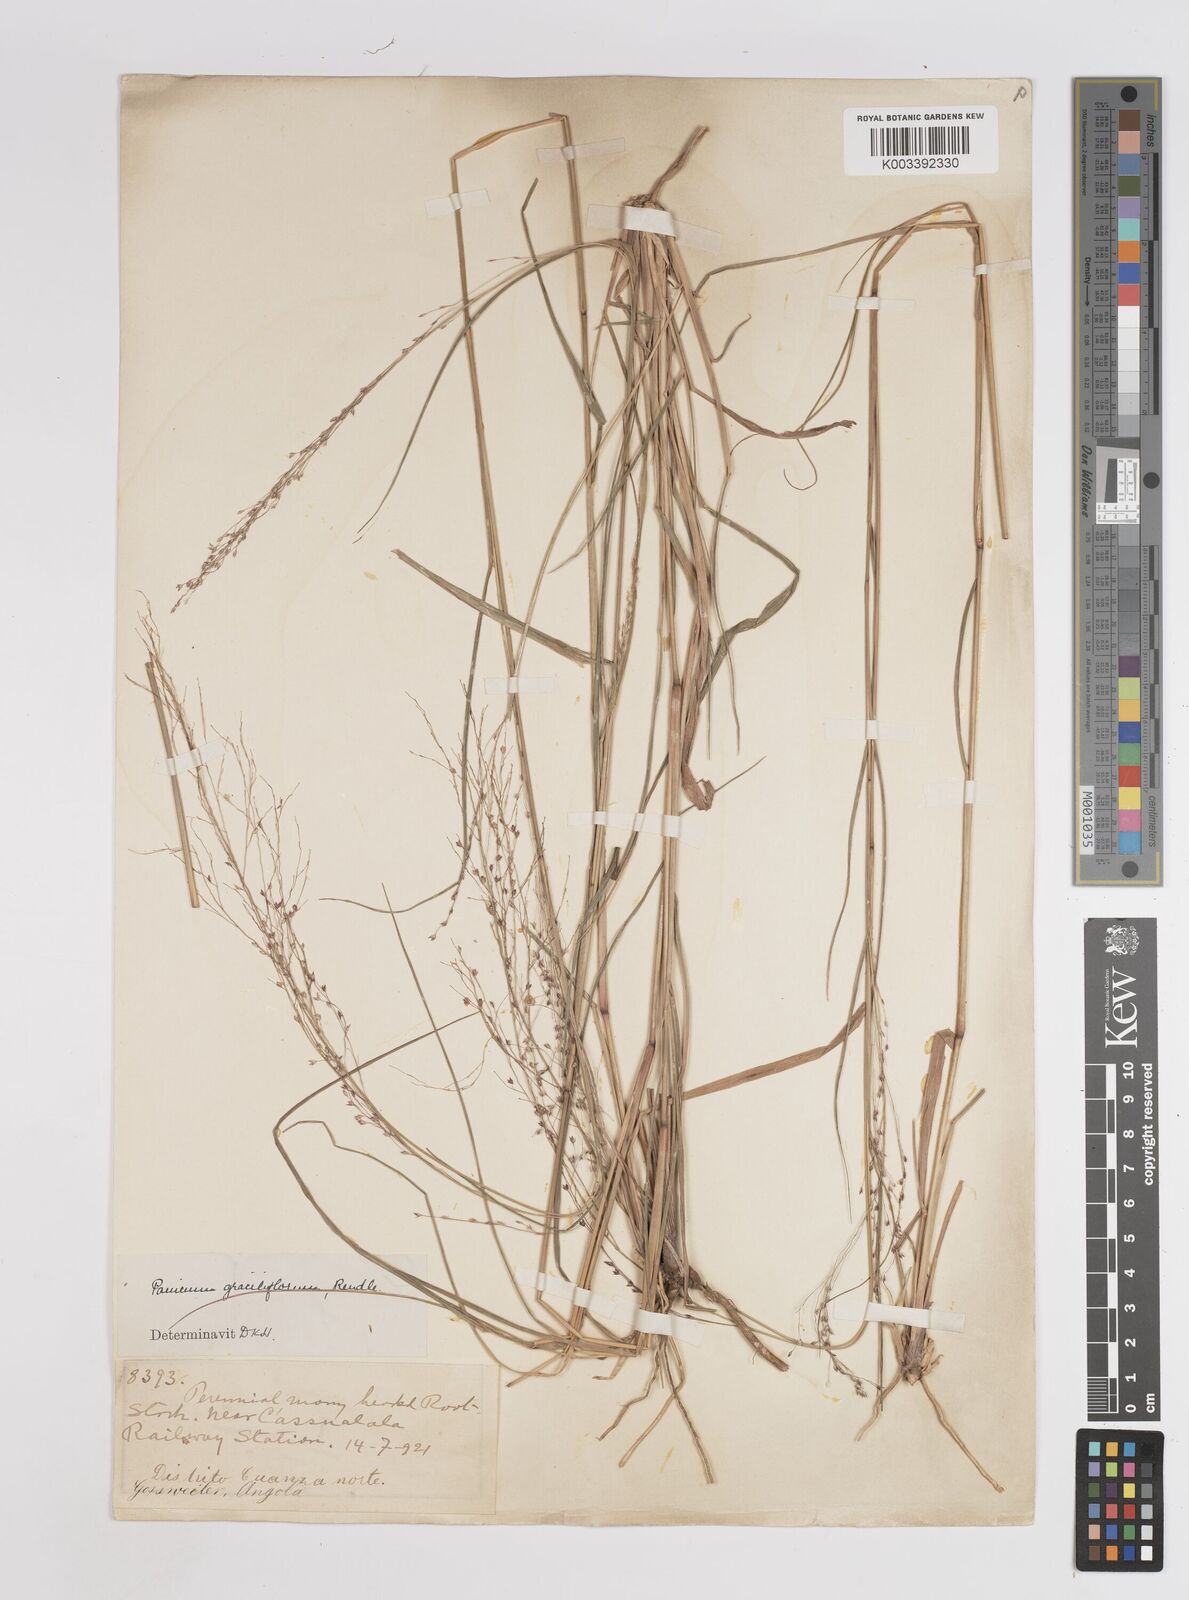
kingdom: Plantae
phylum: Tracheophyta
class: Liliopsida
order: Poales
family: Poaceae
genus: Panicum
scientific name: Panicum fluviicola
